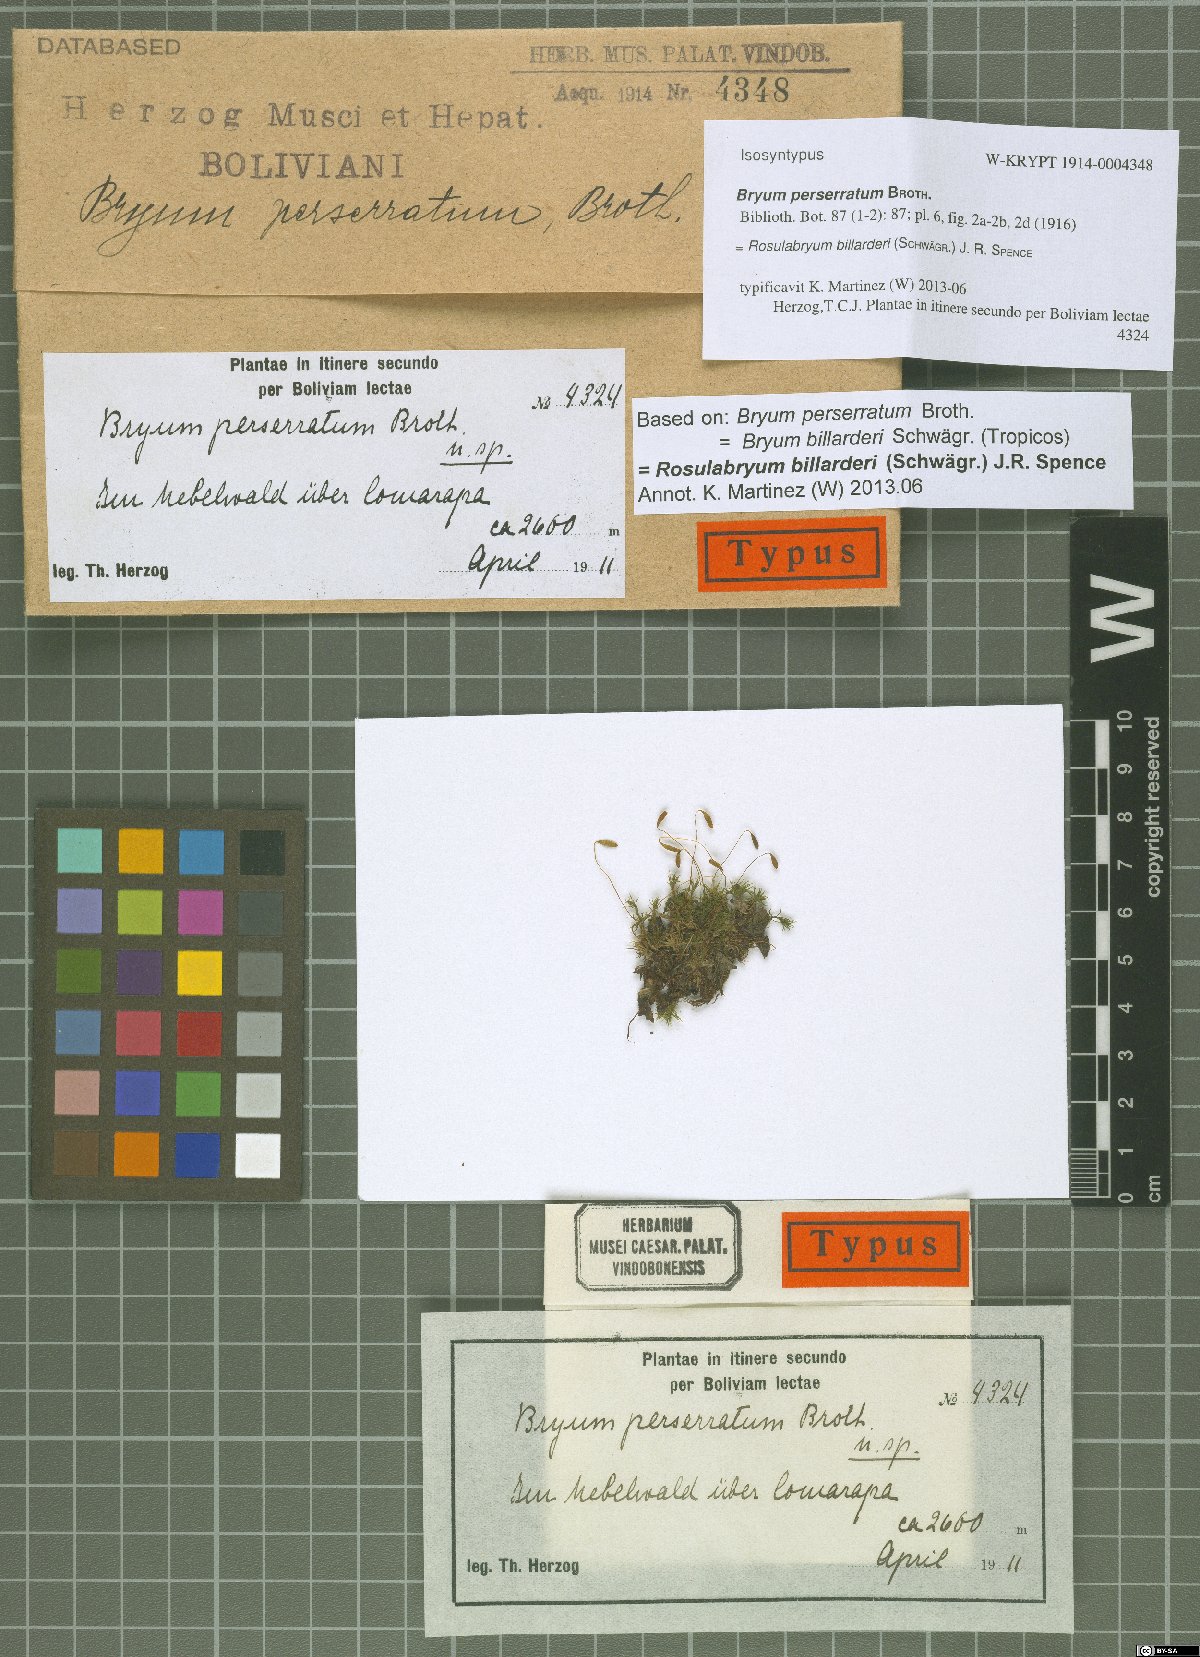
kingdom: Plantae
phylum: Bryophyta
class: Bryopsida
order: Bryales
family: Bryaceae
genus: Rosulabryum
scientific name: Rosulabryum andicola
